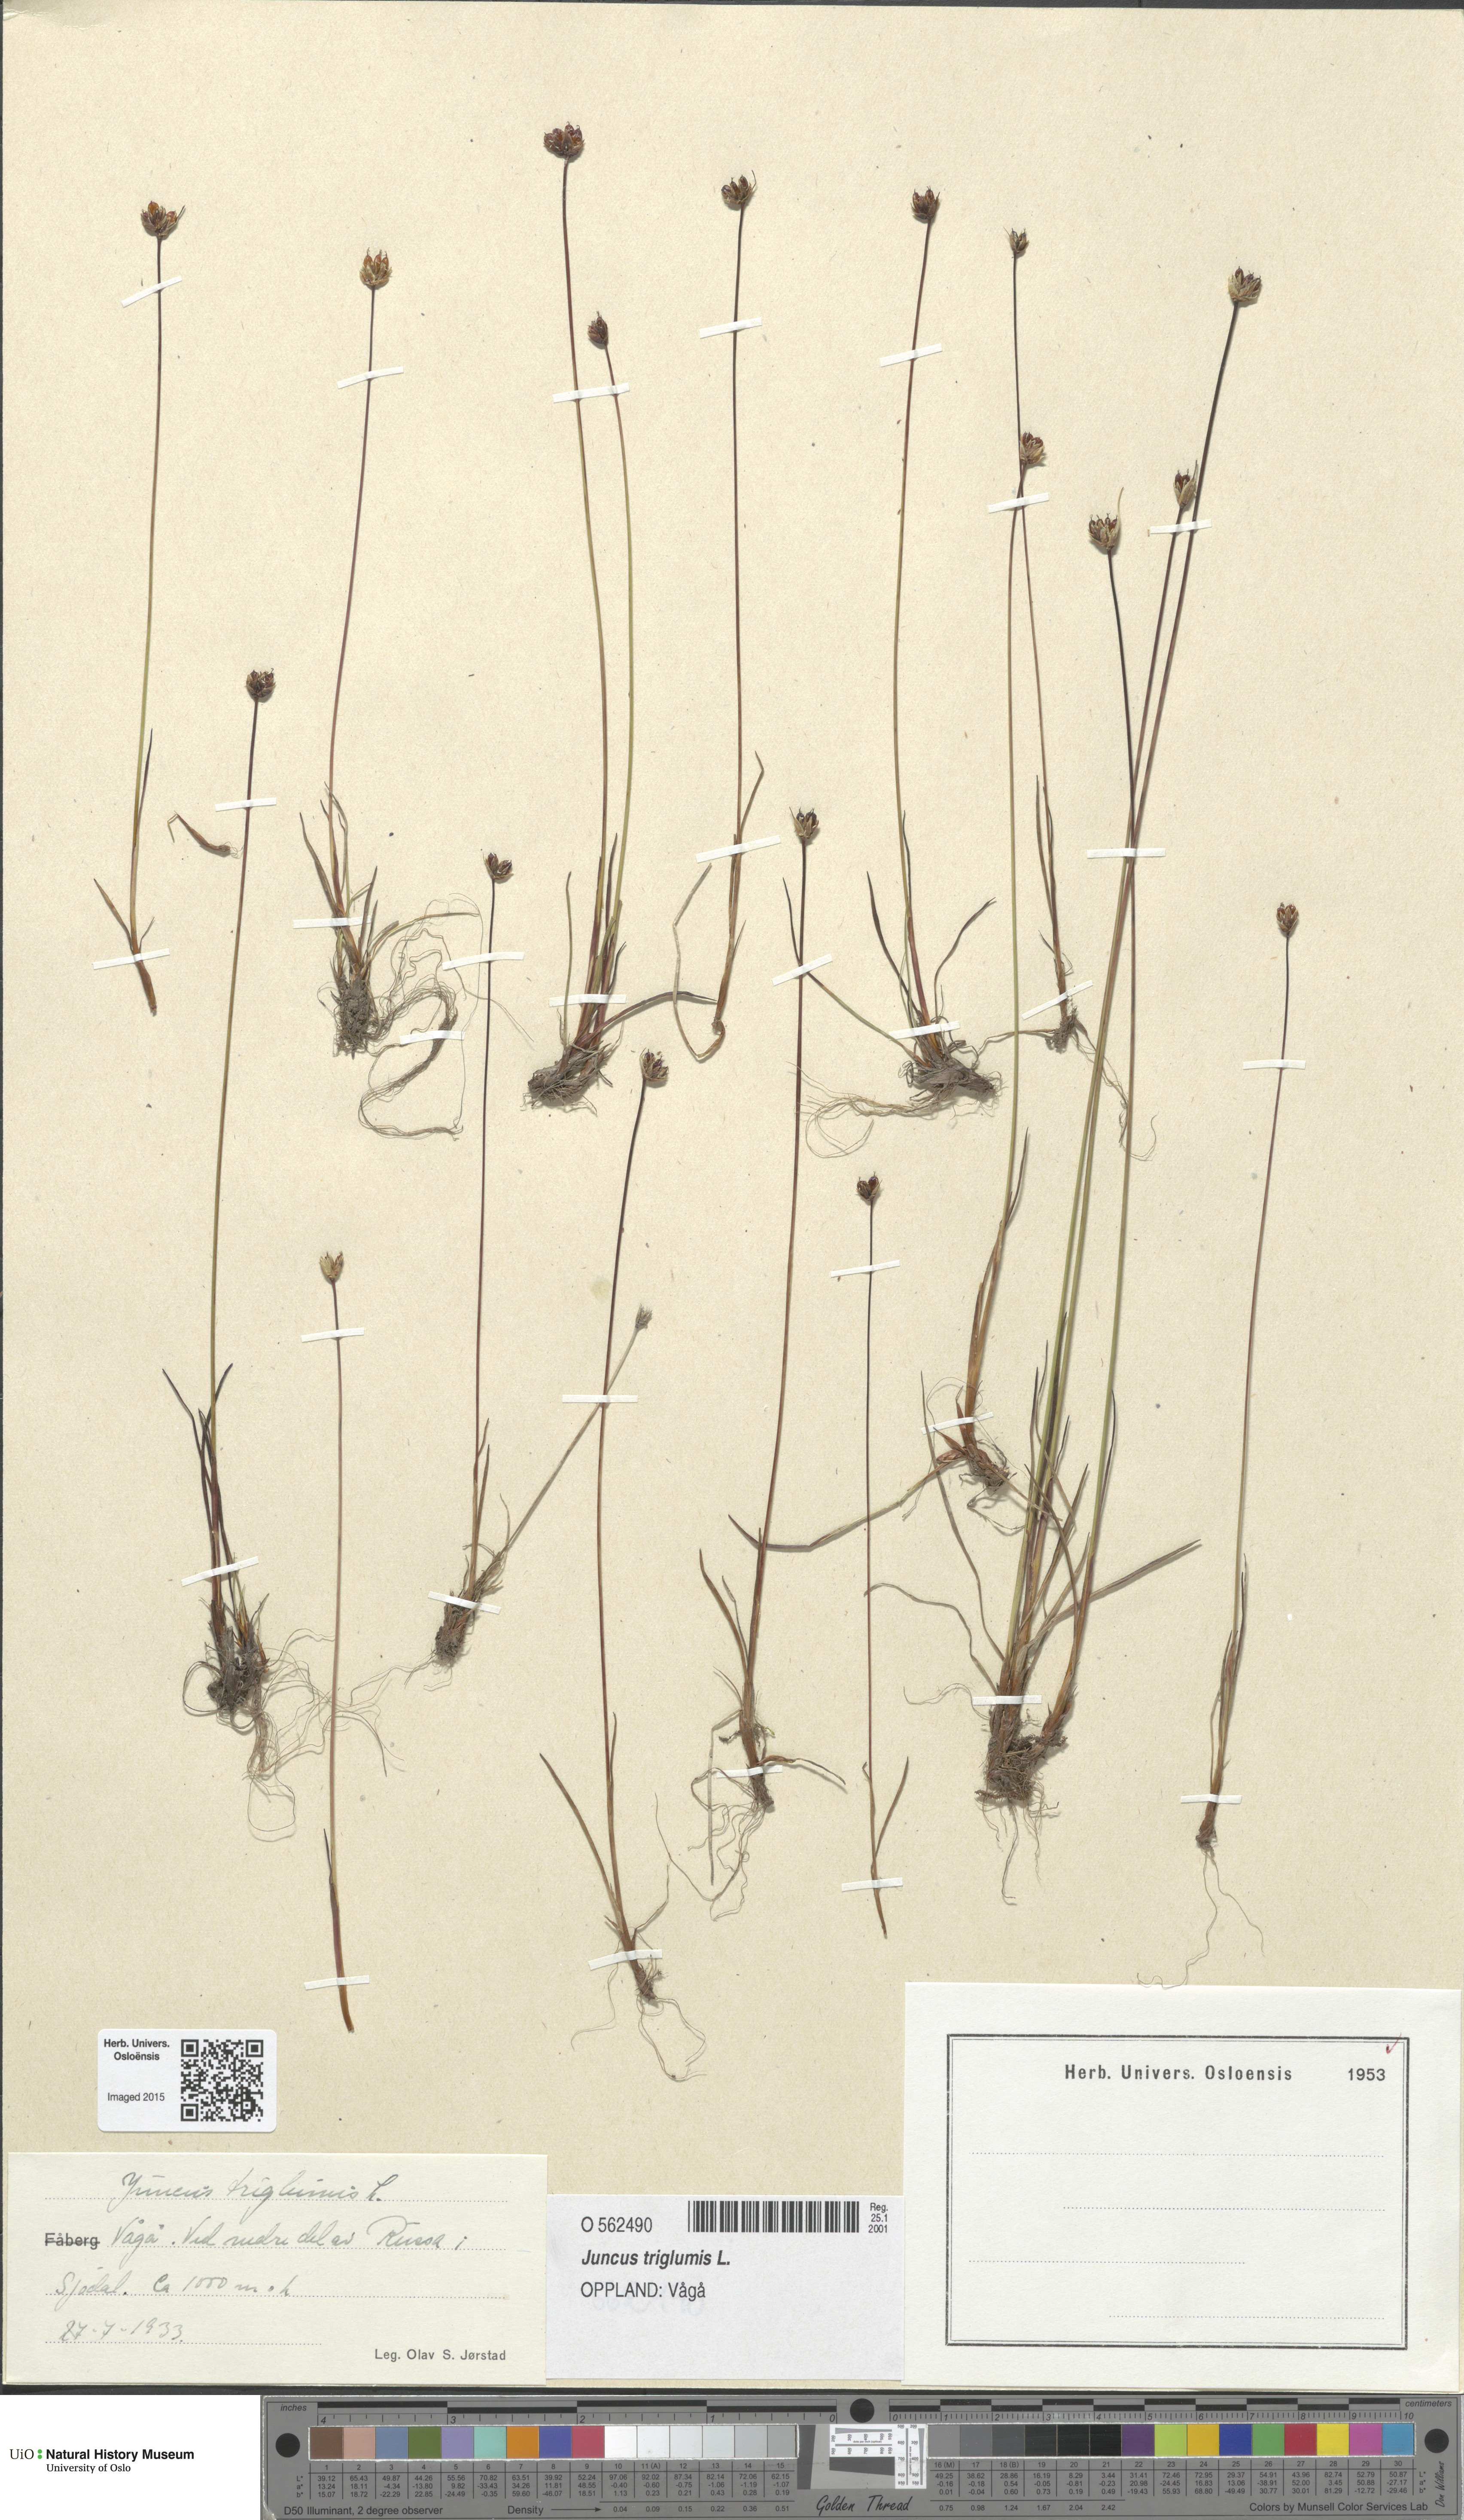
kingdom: Plantae
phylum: Tracheophyta
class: Liliopsida
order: Poales
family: Juncaceae
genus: Juncus
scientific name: Juncus triglumis
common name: Three-flowered rush
